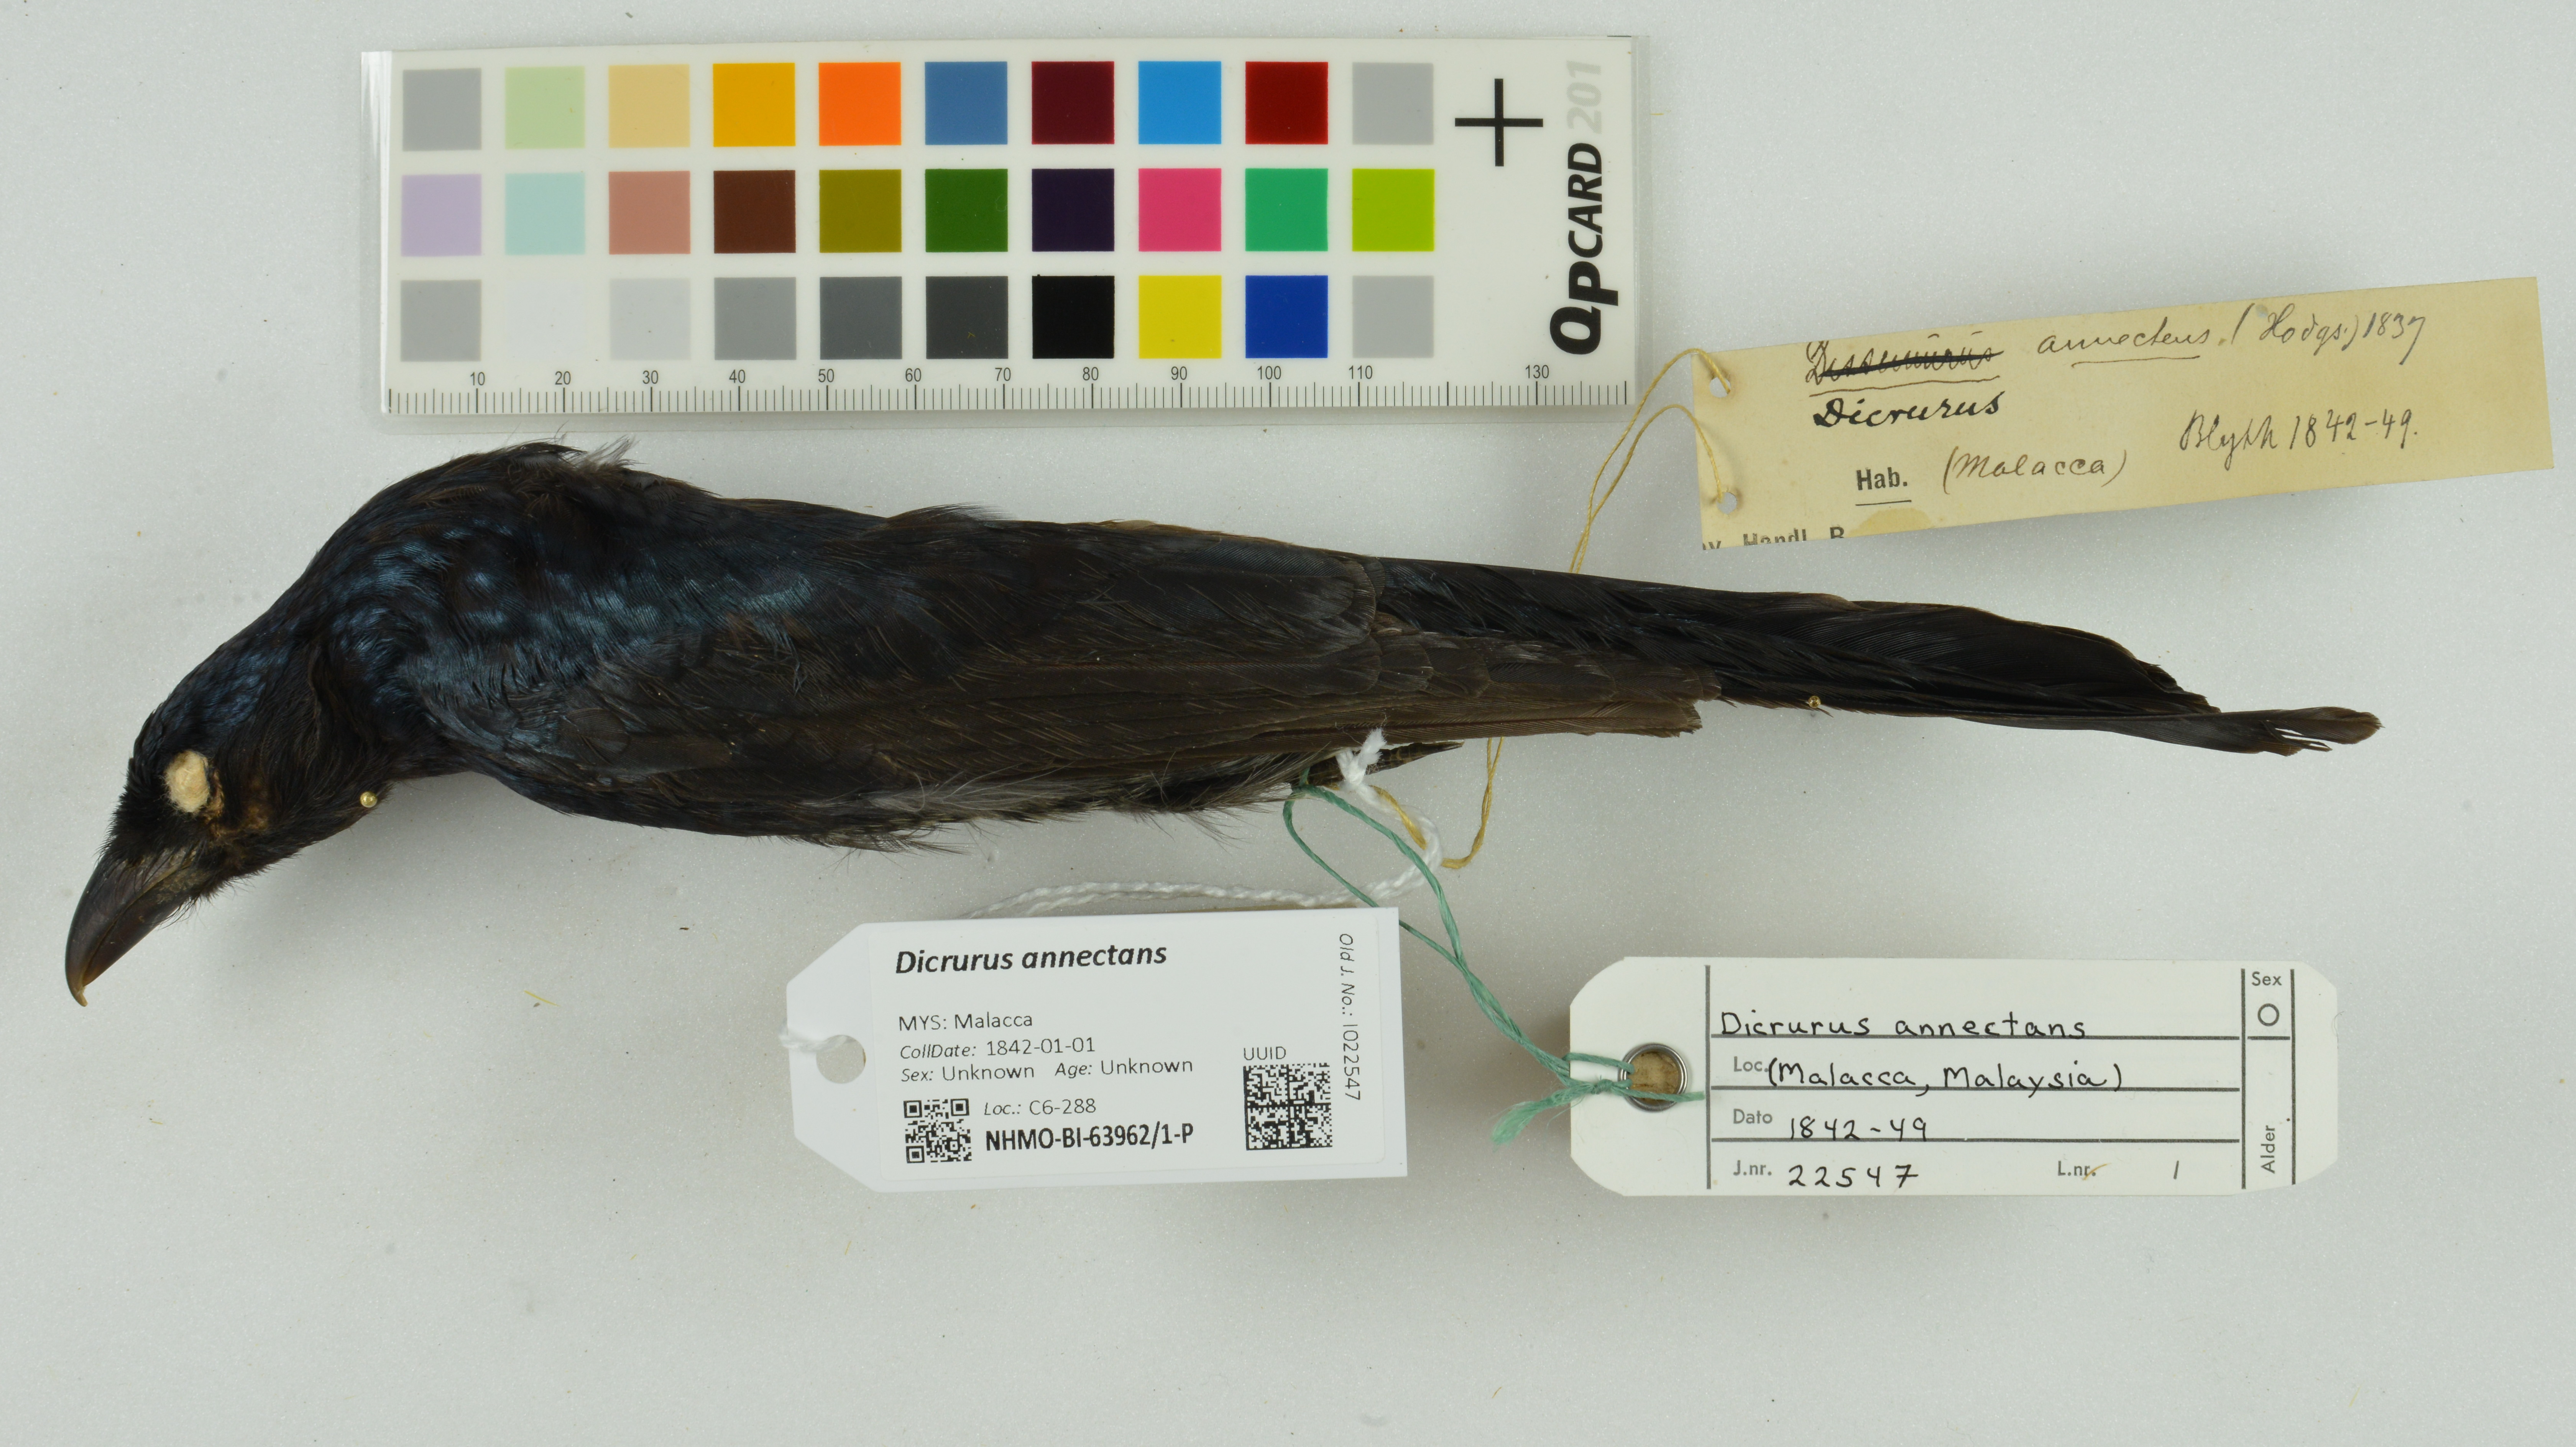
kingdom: Animalia
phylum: Chordata
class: Aves
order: Passeriformes
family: Dicruridae
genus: Dicrurus
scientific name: Dicrurus annectens
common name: Crow-billed drongo
